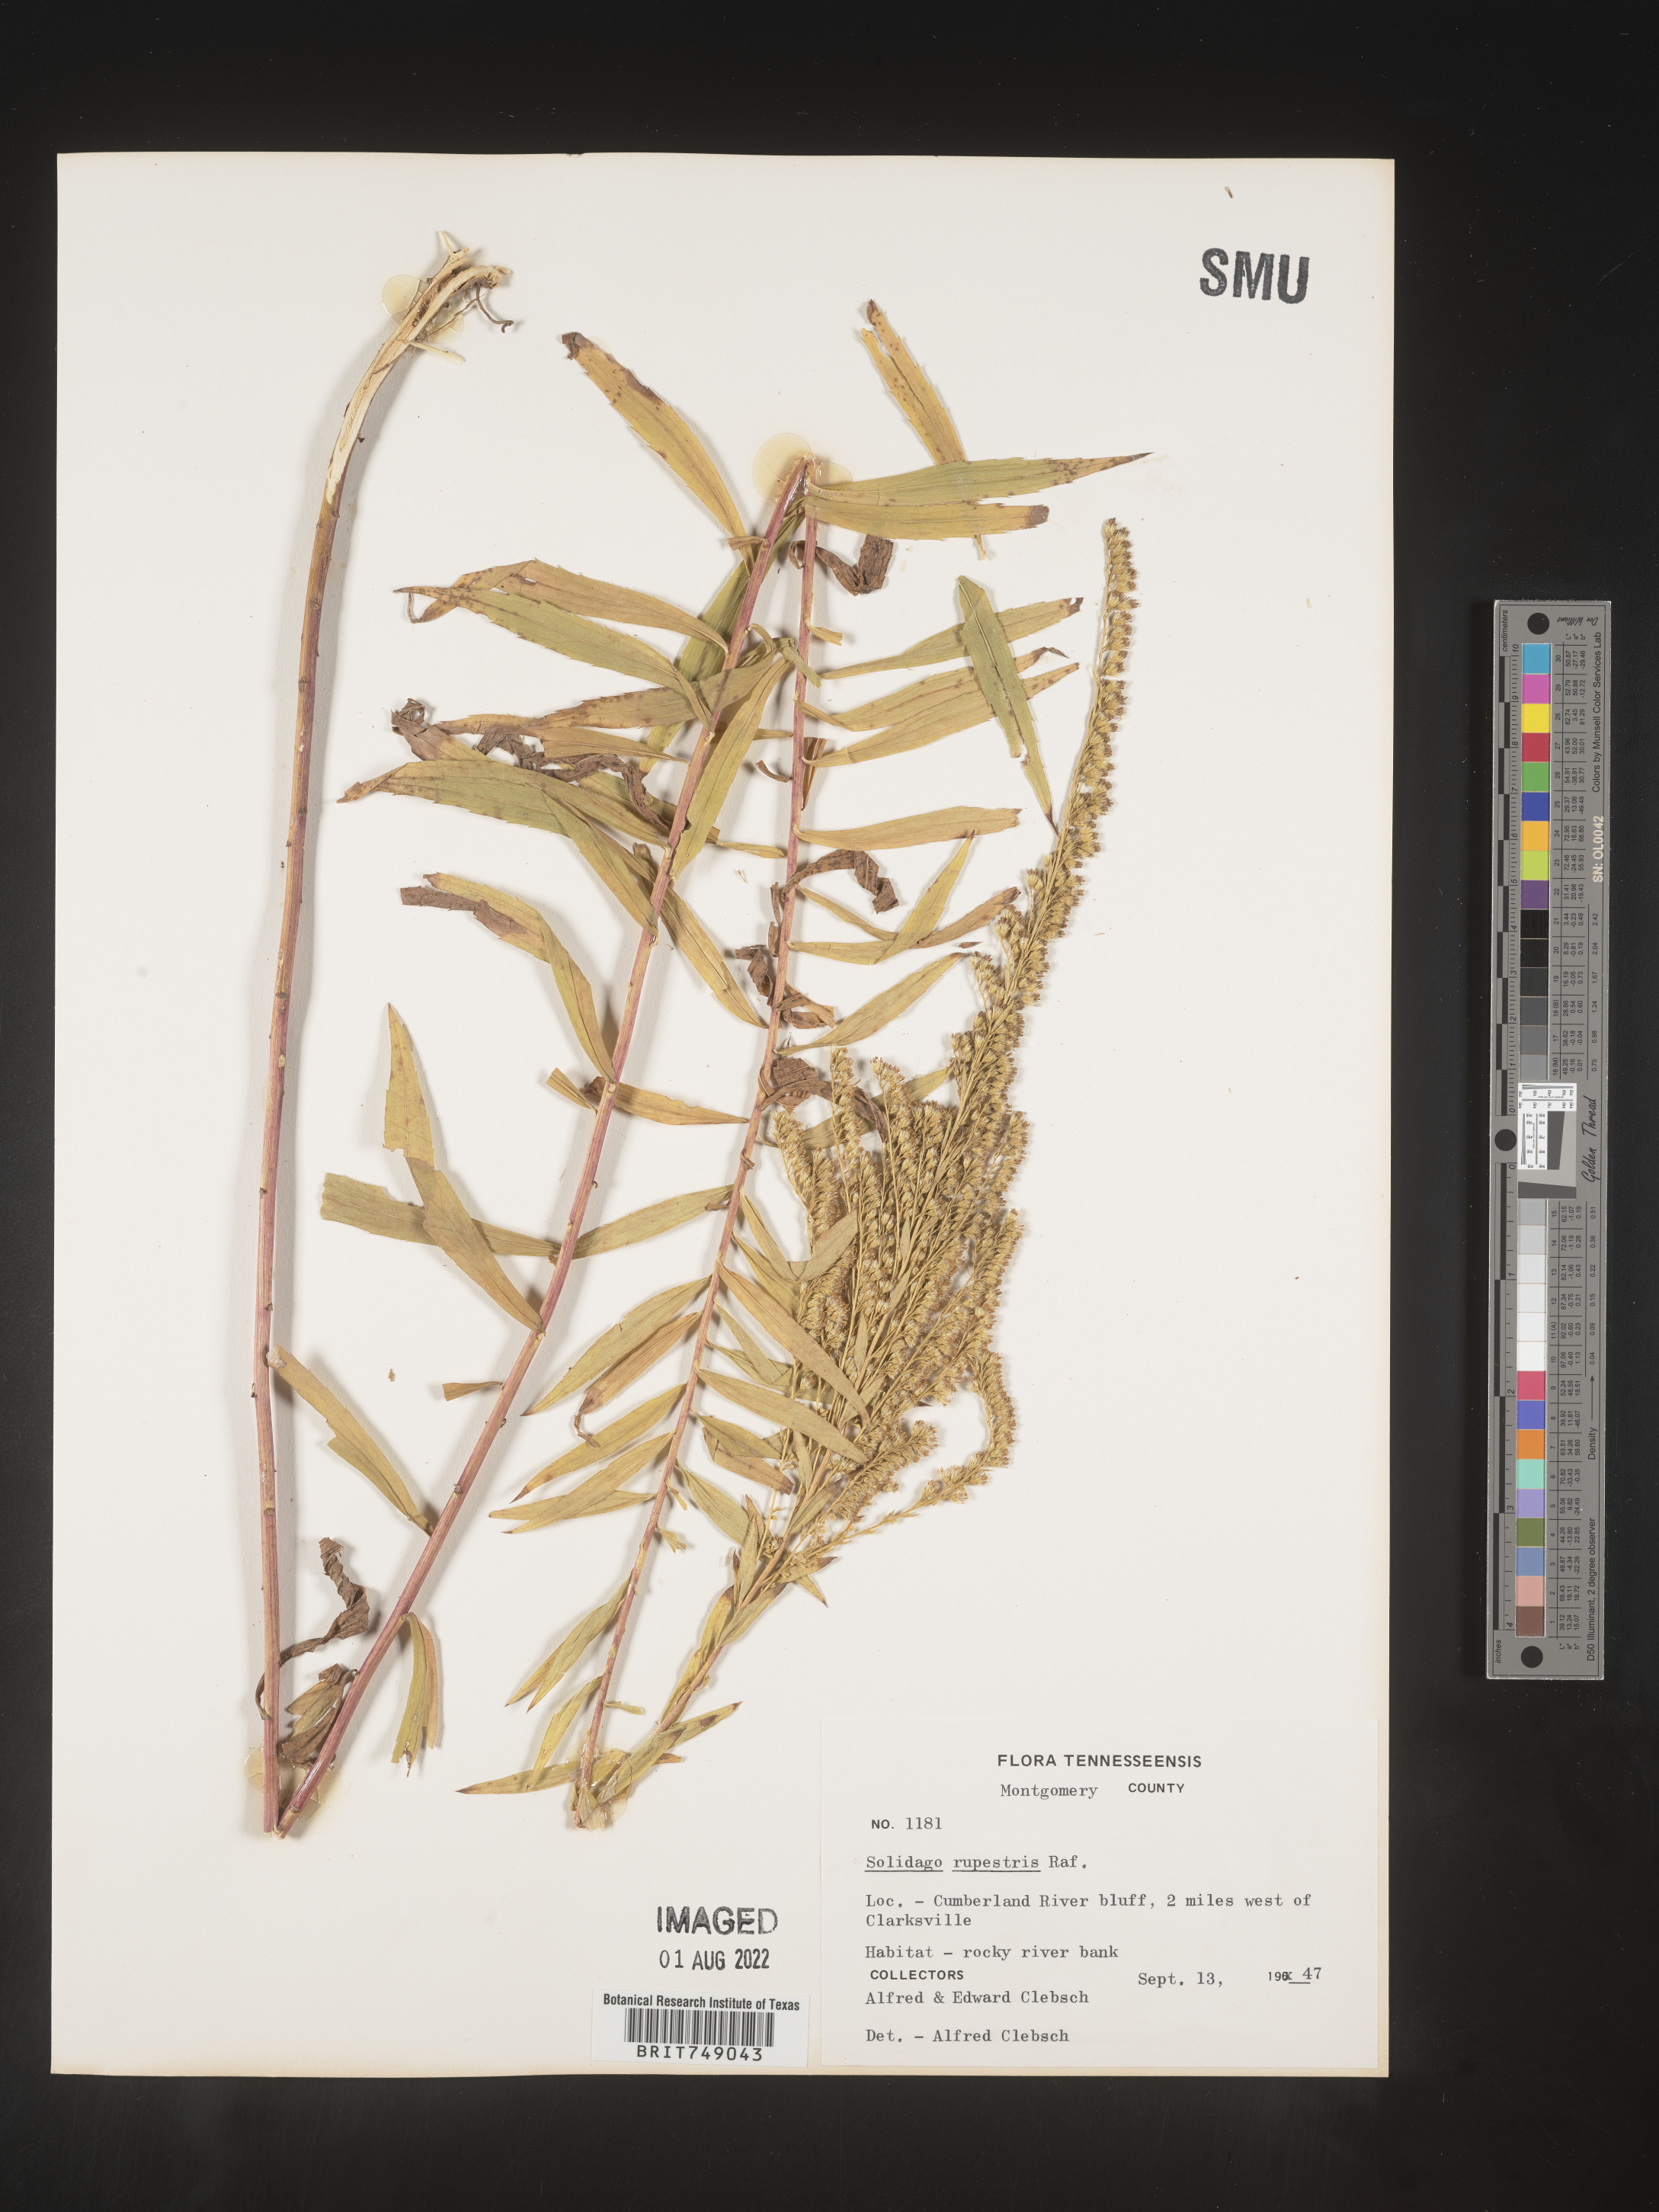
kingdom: Plantae
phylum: Tracheophyta
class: Magnoliopsida
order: Asterales
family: Asteraceae
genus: Solidago
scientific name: Solidago rupestris
